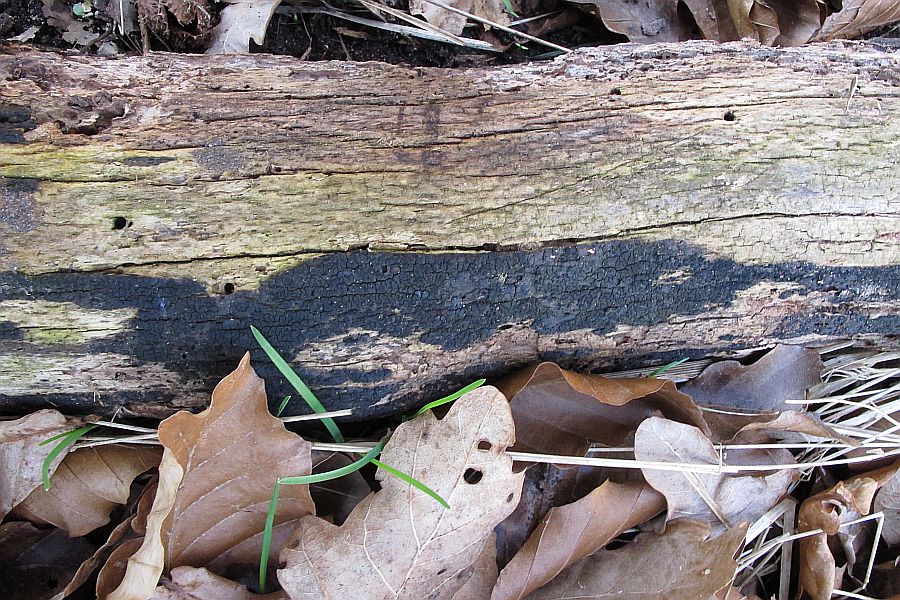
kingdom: Fungi
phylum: Ascomycota
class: Eurotiomycetes
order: Chaetothyriales
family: Herpotrichiellaceae
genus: Capronia
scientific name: Capronia nigerrima
